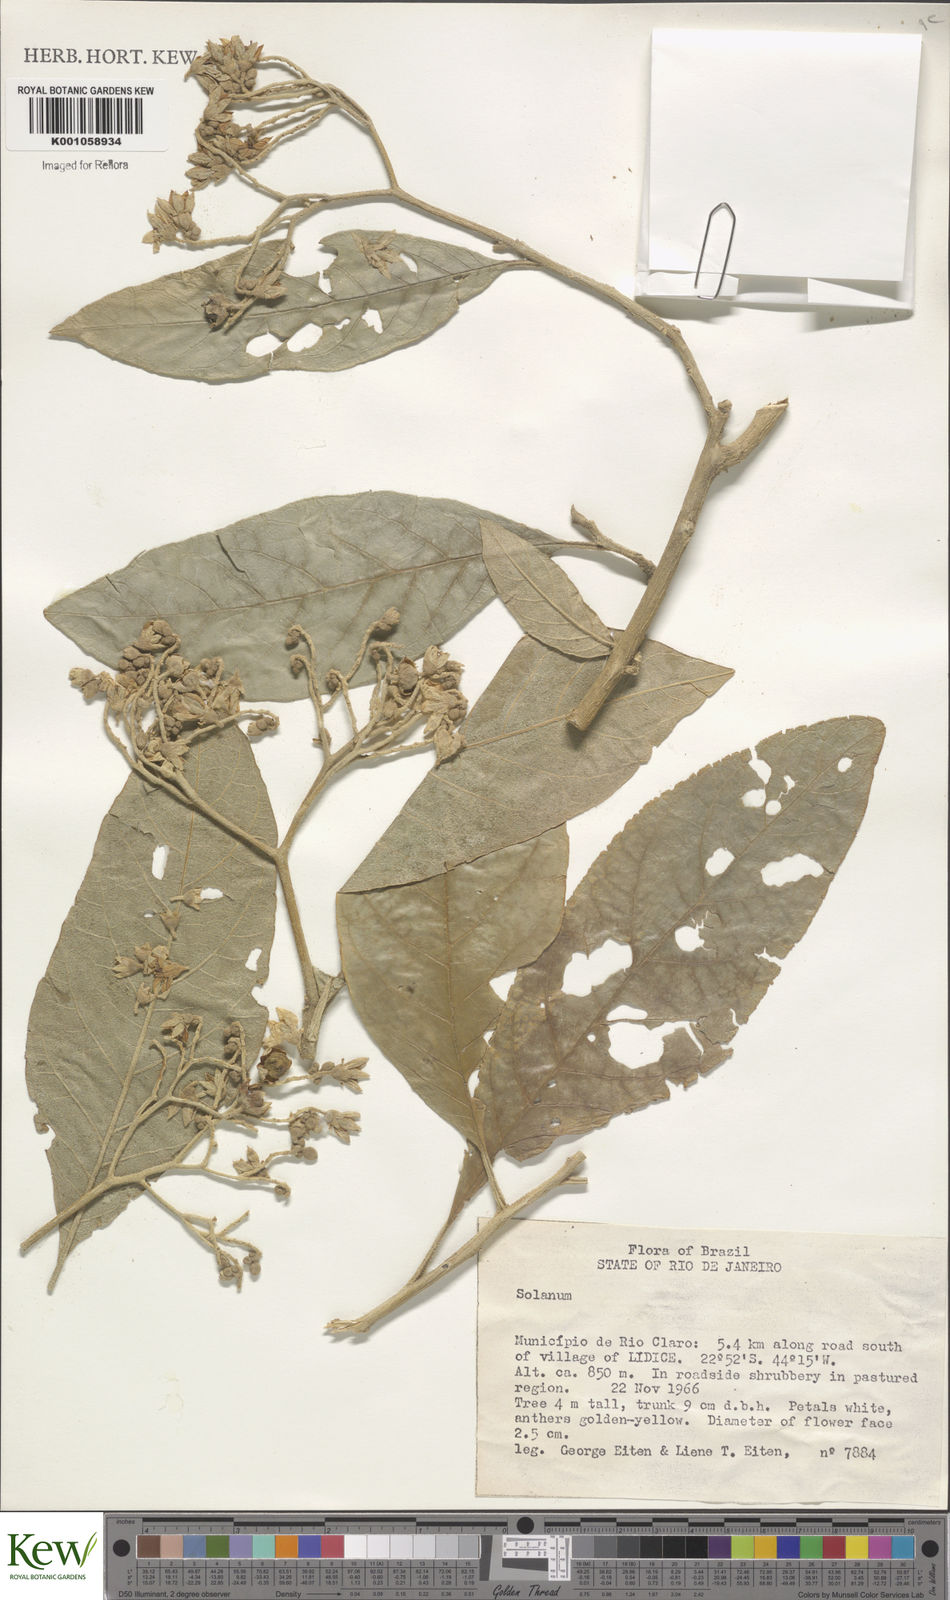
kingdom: Plantae
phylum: Tracheophyta
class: Magnoliopsida
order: Solanales
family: Solanaceae
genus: Capsicum
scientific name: Capsicum parvifolium
